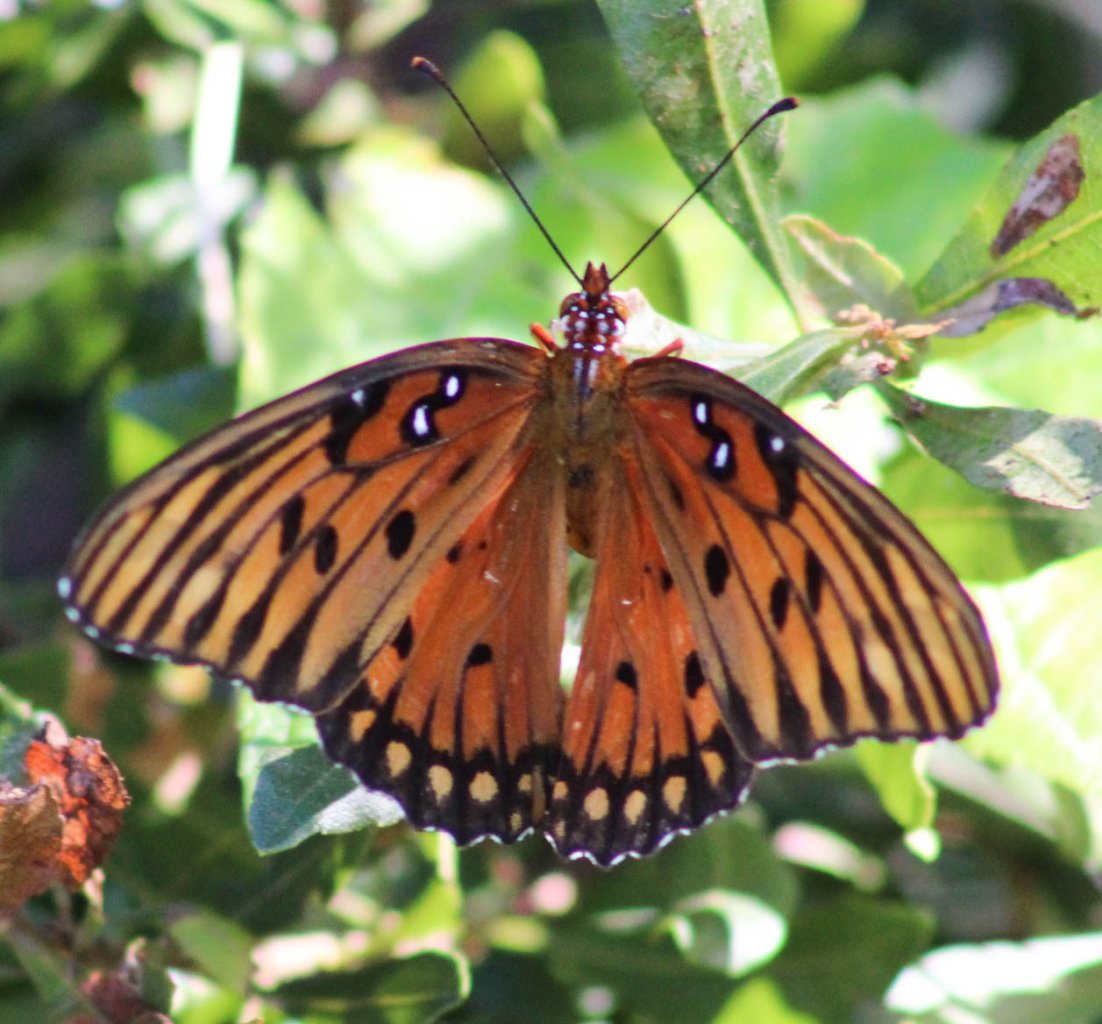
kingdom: Animalia
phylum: Arthropoda
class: Insecta
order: Lepidoptera
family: Nymphalidae
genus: Dione
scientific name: Dione vanillae
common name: Gulf Fritillary
